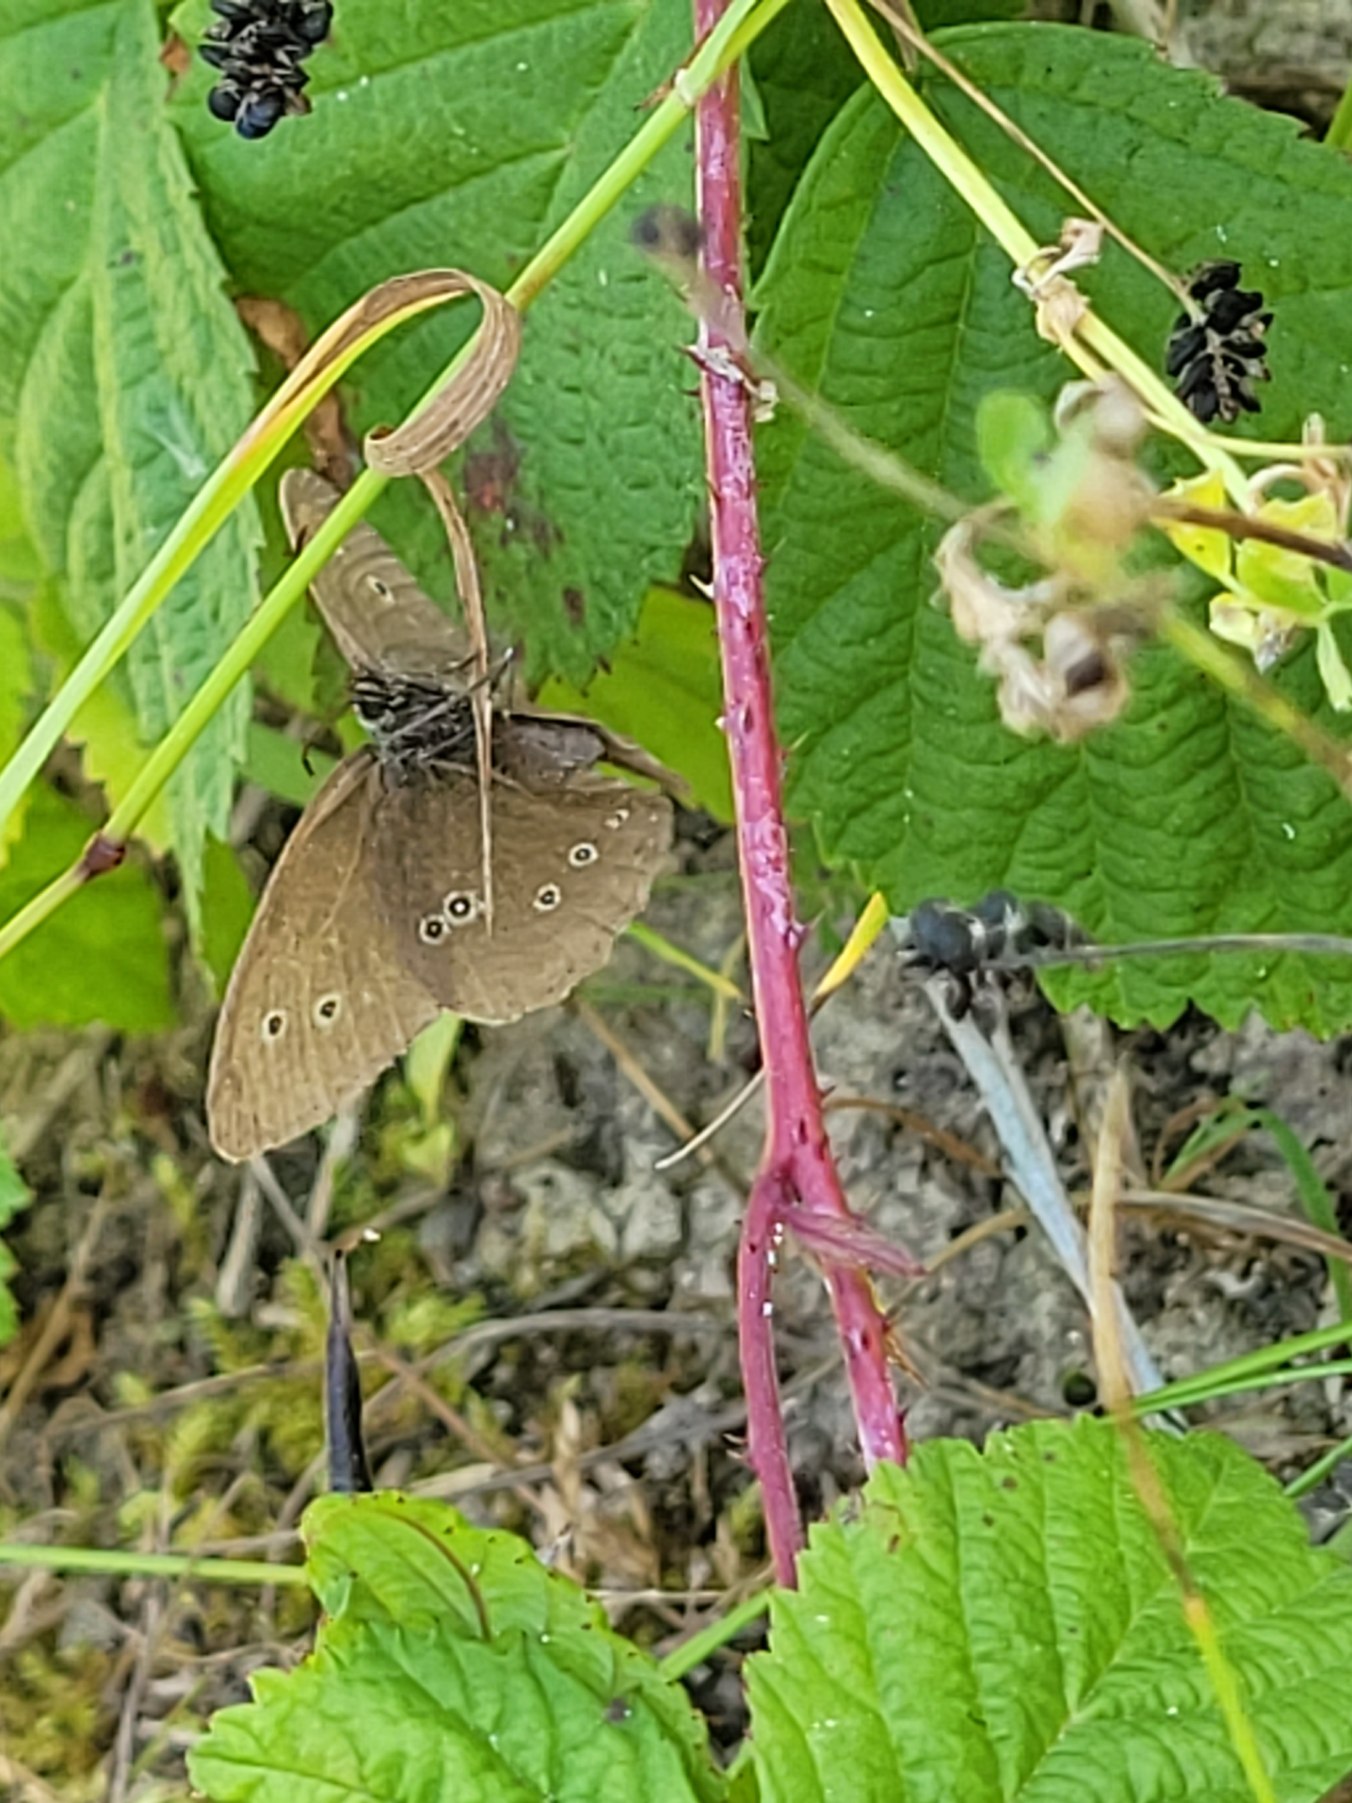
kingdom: Animalia
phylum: Arthropoda
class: Insecta
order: Lepidoptera
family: Nymphalidae
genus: Aphantopus
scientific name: Aphantopus hyperantus
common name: Engrandøje
